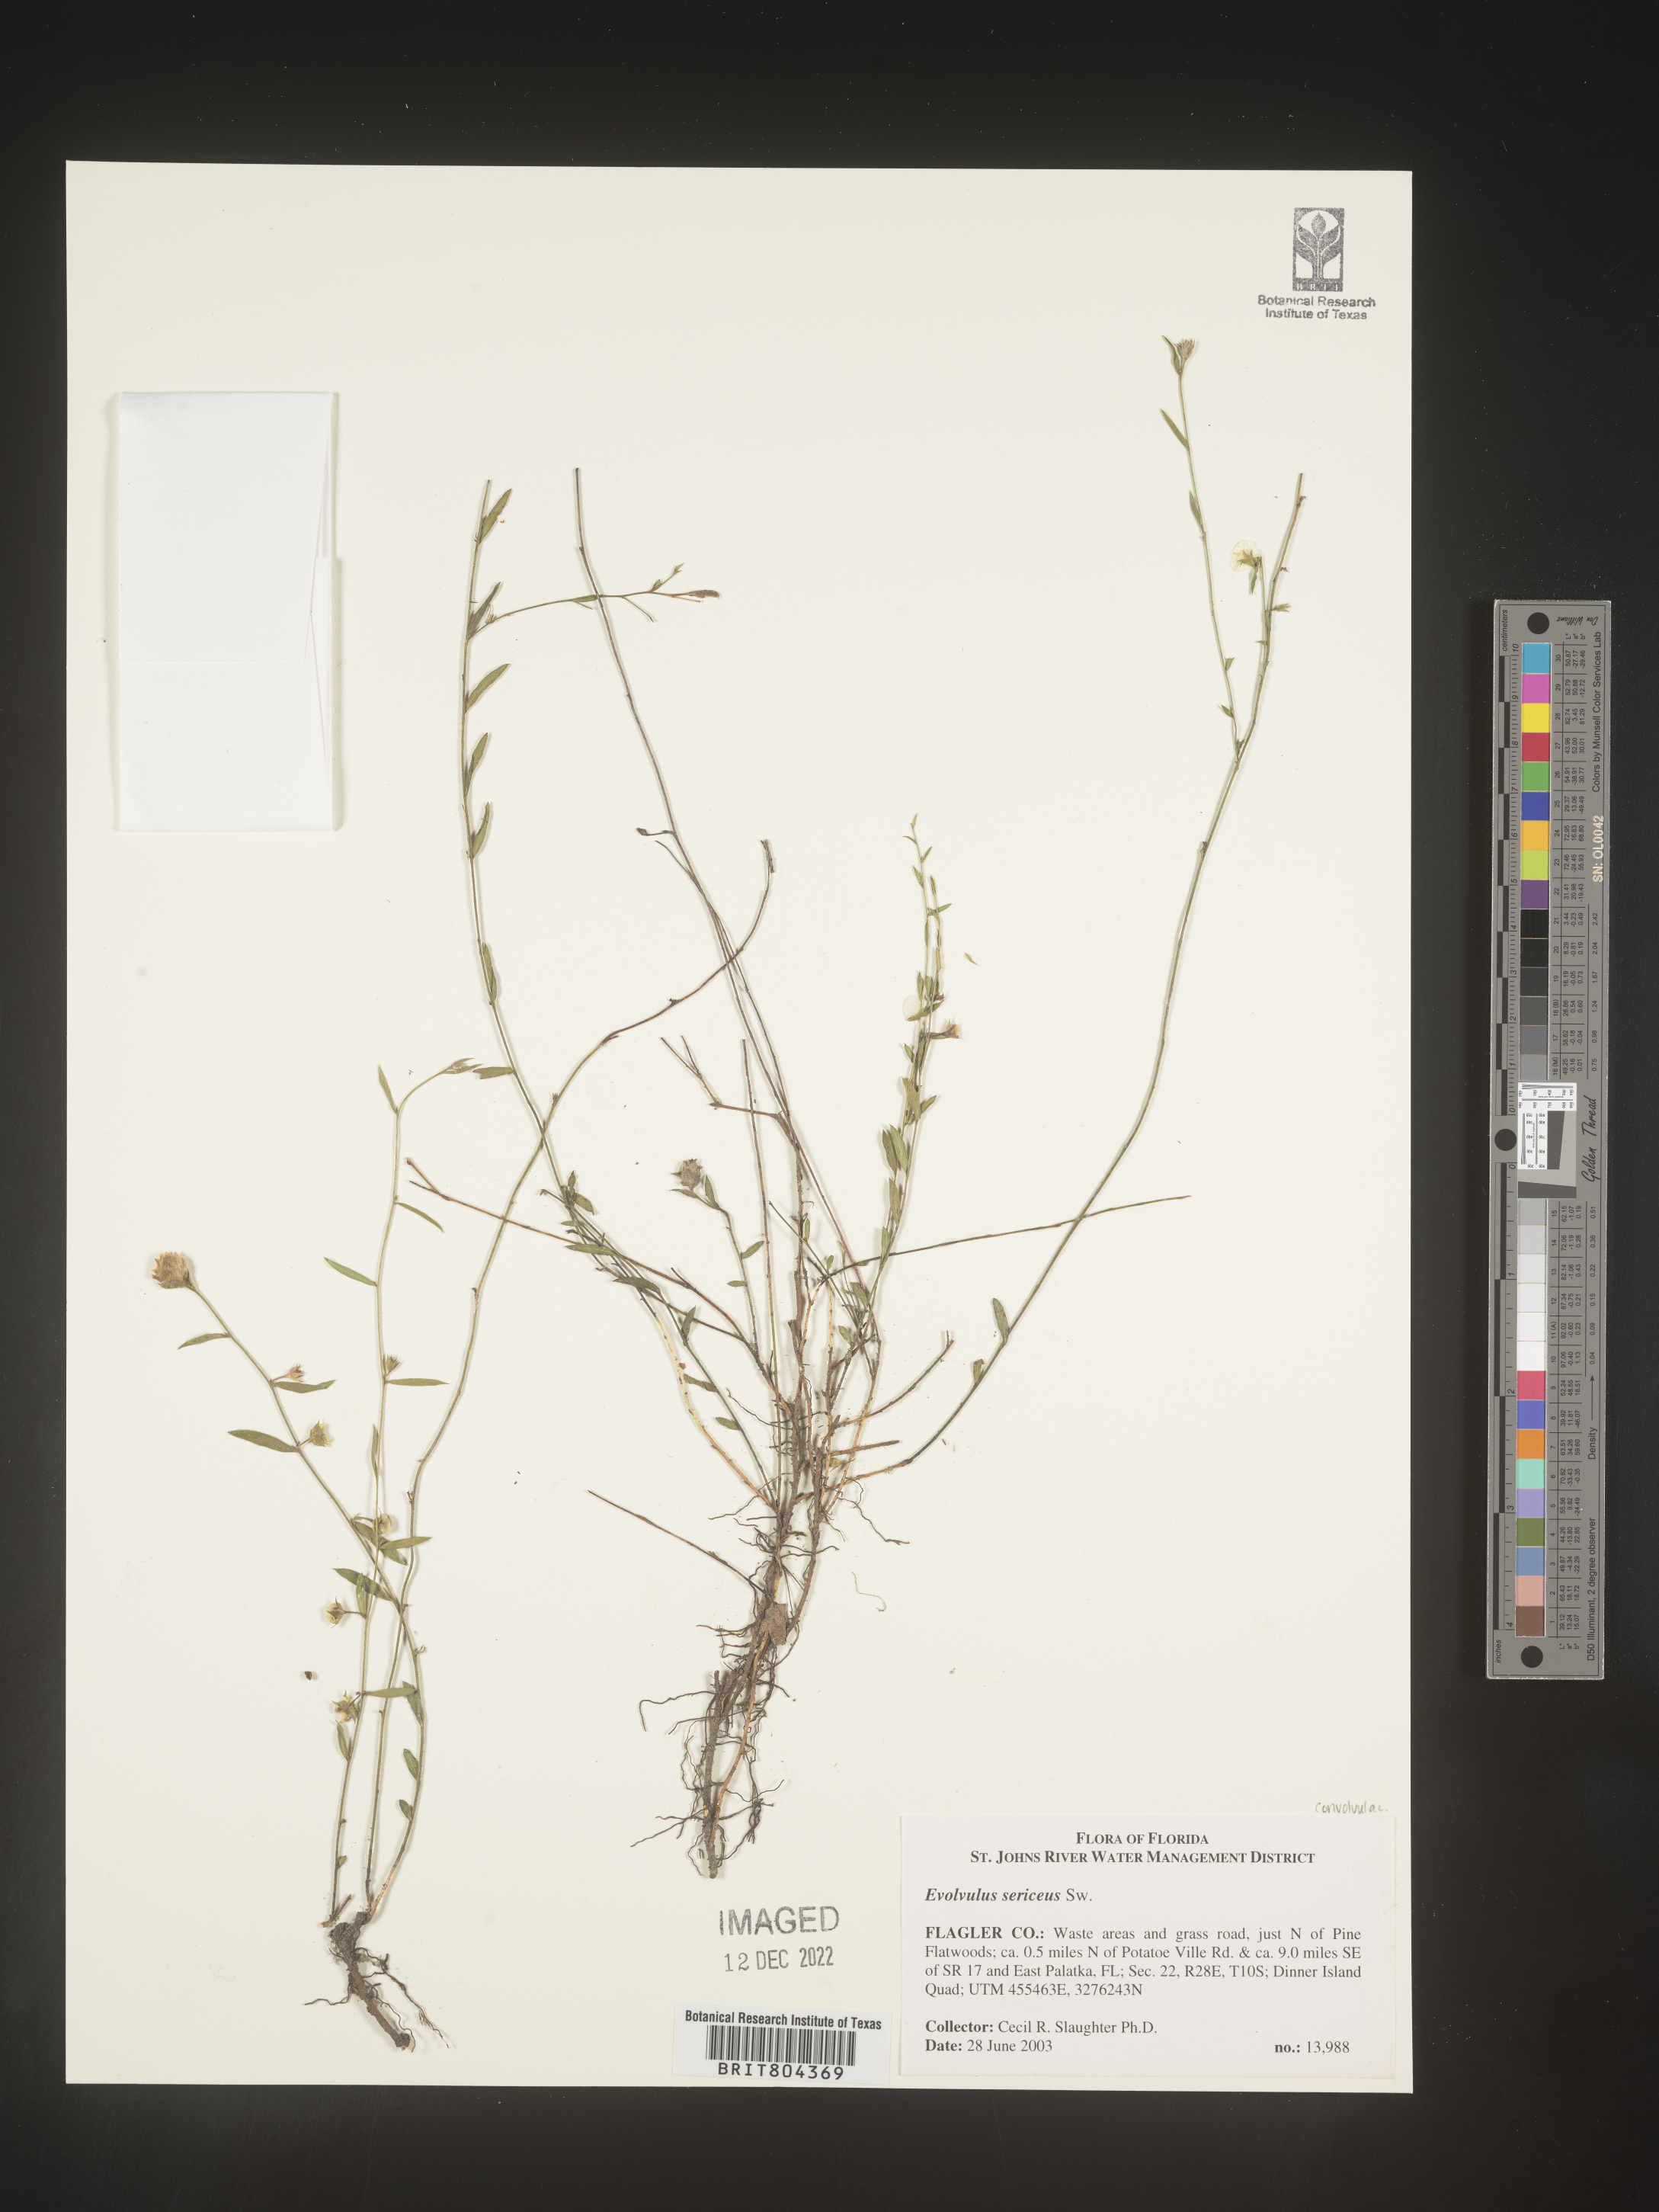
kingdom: Plantae
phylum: Tracheophyta
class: Magnoliopsida
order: Solanales
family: Convolvulaceae
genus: Evolvulus
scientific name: Evolvulus
